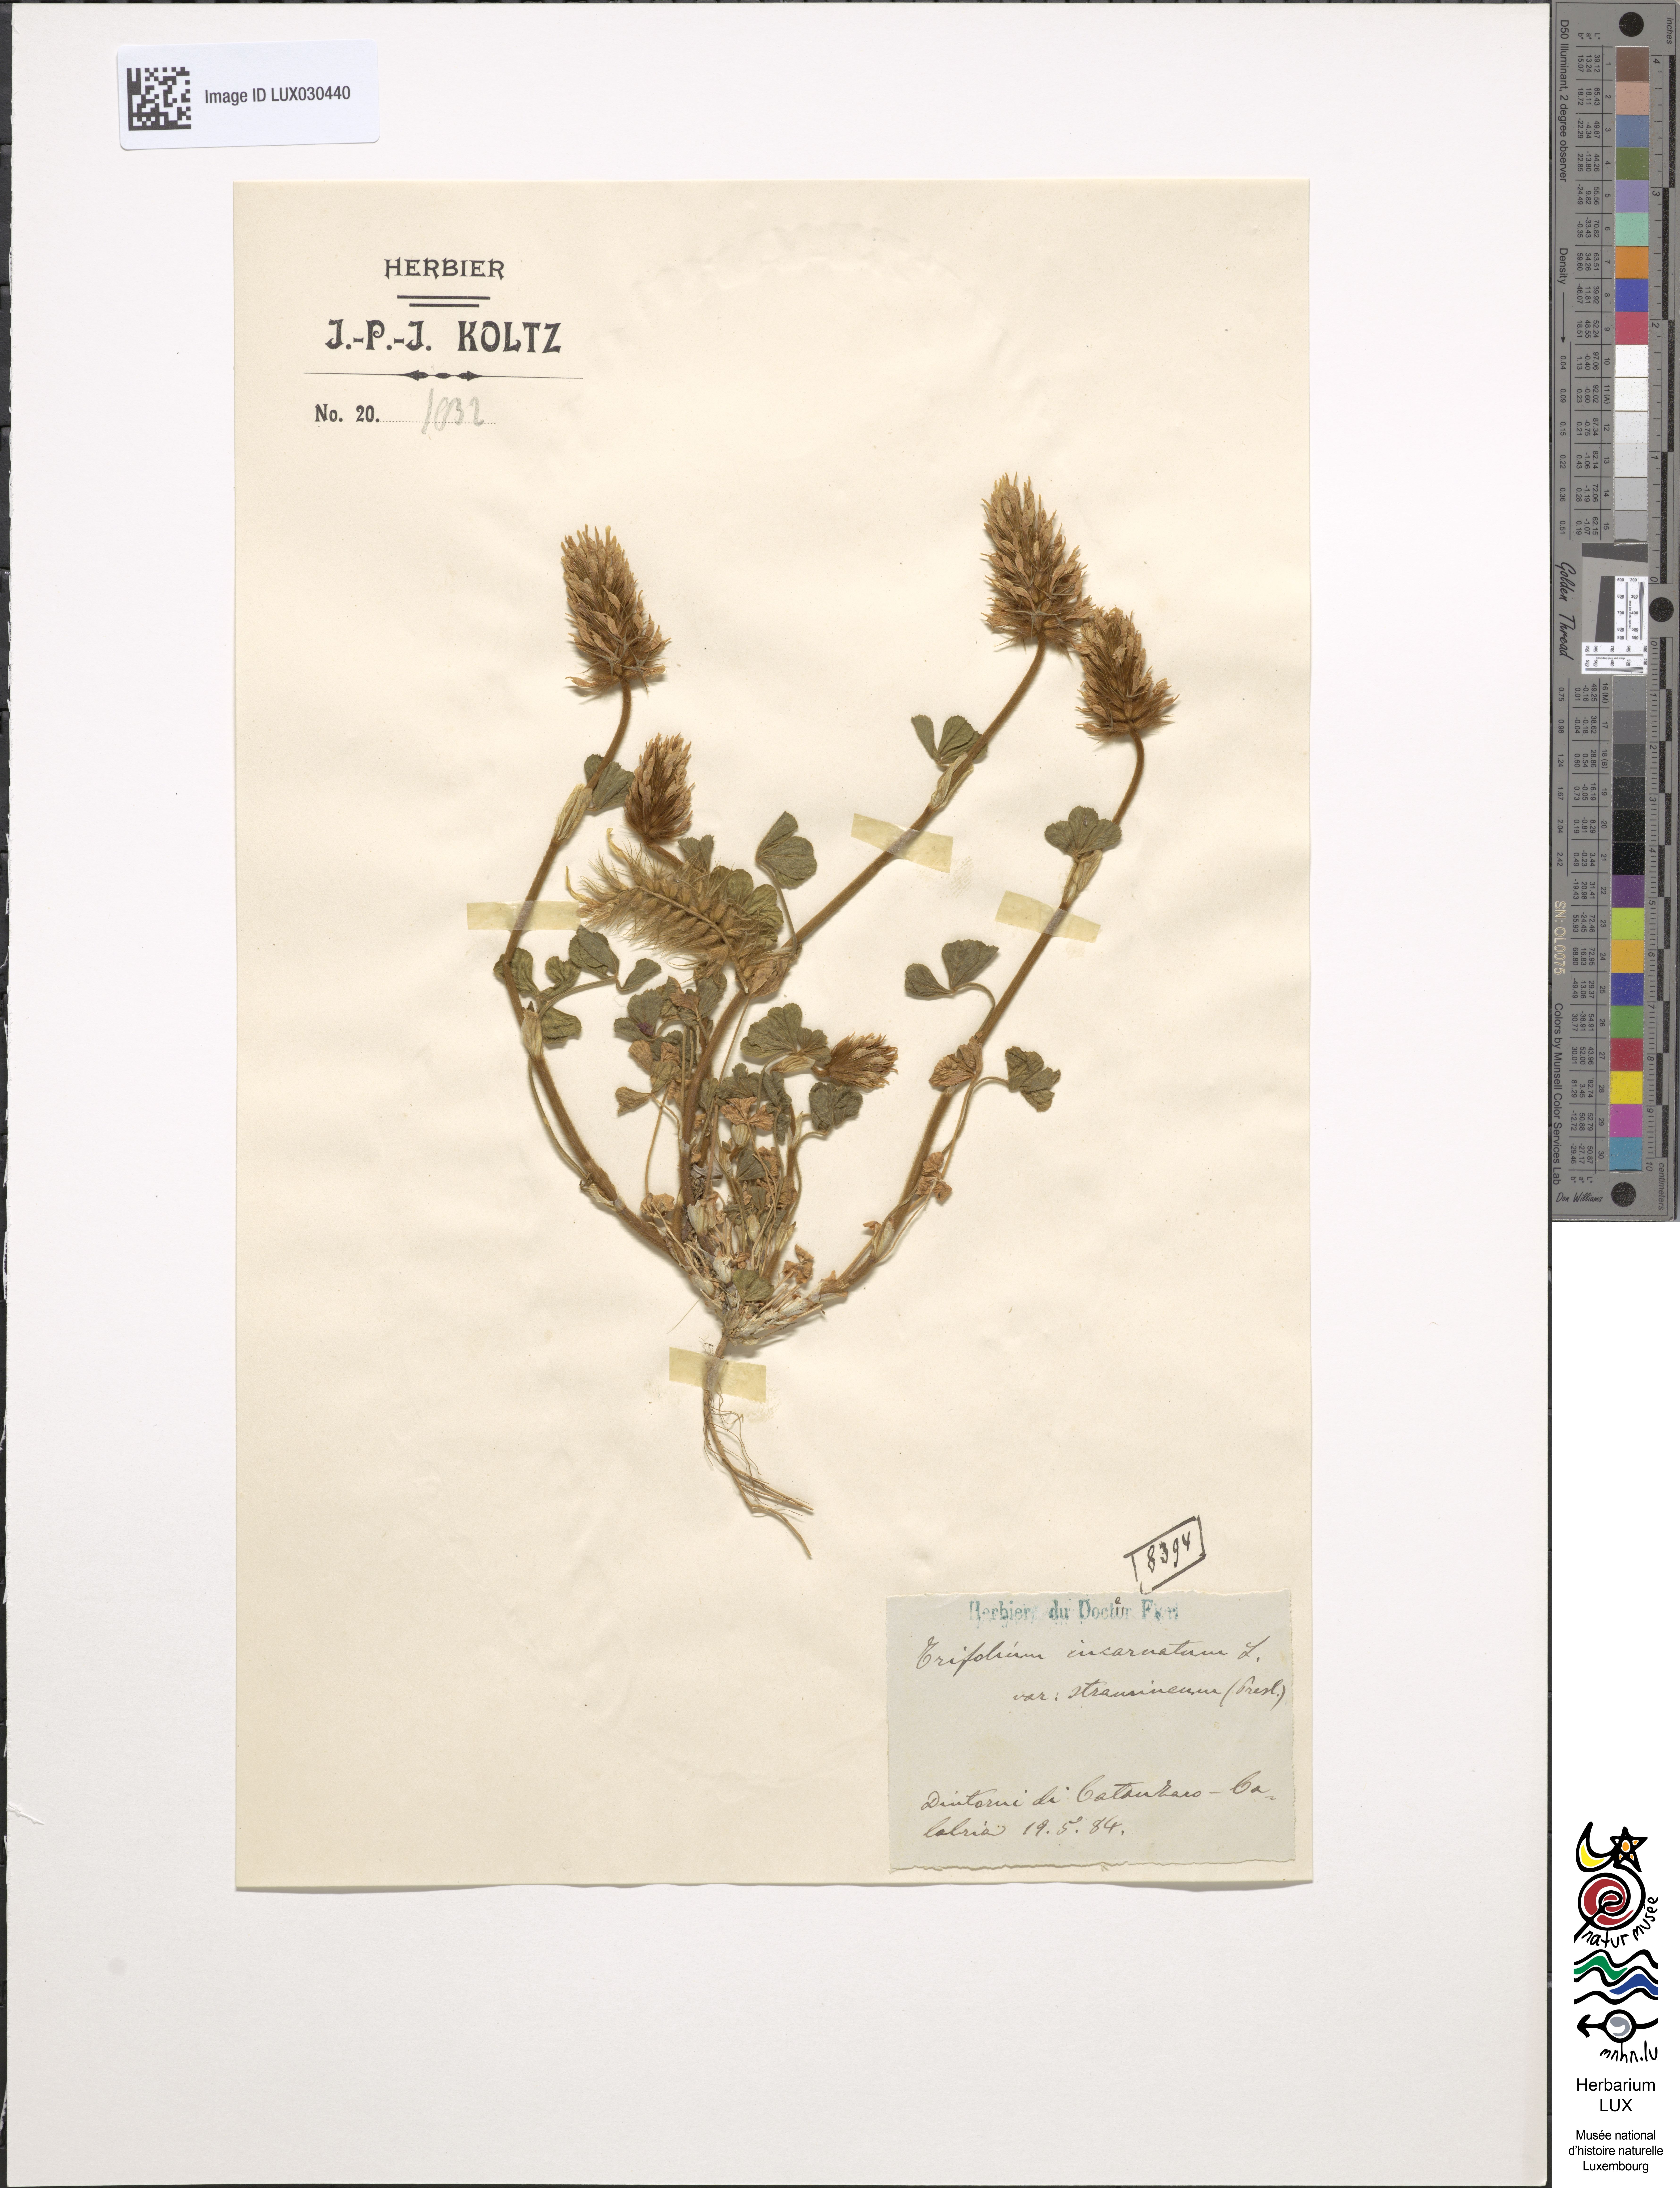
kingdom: Plantae
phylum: Tracheophyta
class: Magnoliopsida
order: Fabales
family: Fabaceae
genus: Trifolium
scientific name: Trifolium incarnatum
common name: Crimson clover
